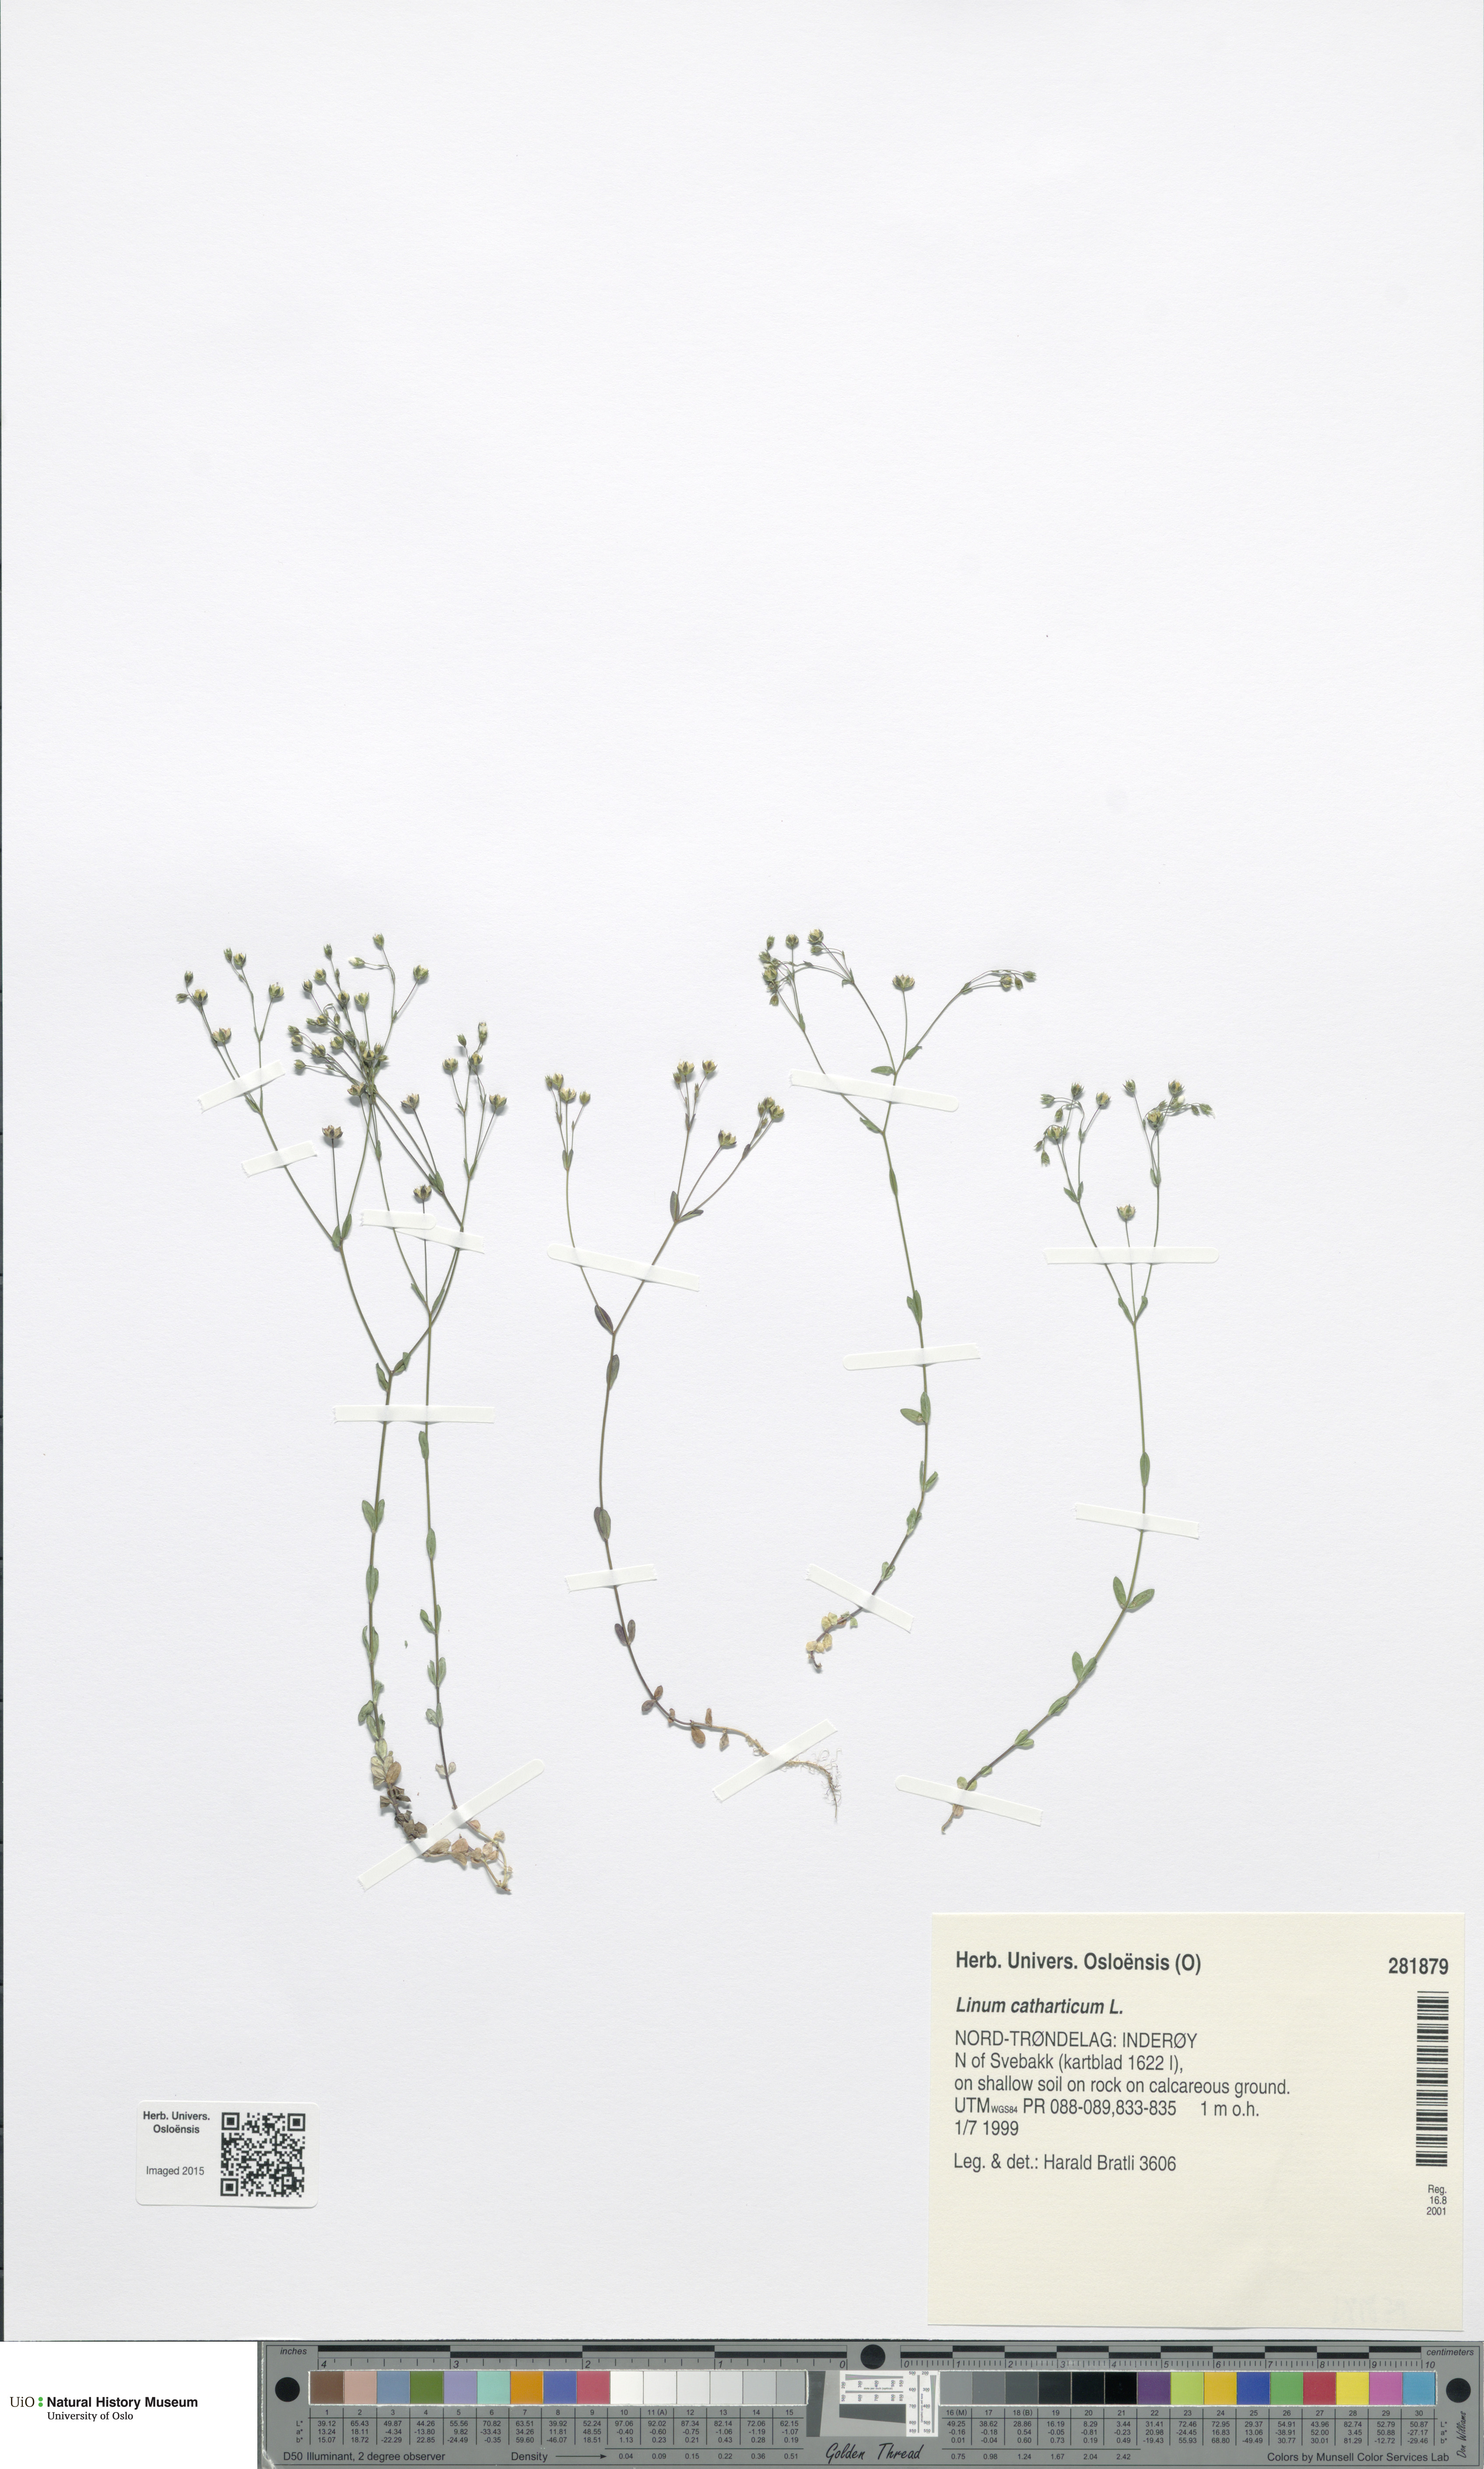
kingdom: Plantae
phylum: Tracheophyta
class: Magnoliopsida
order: Malpighiales
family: Linaceae
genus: Linum
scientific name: Linum catharticum
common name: Fairy flax
